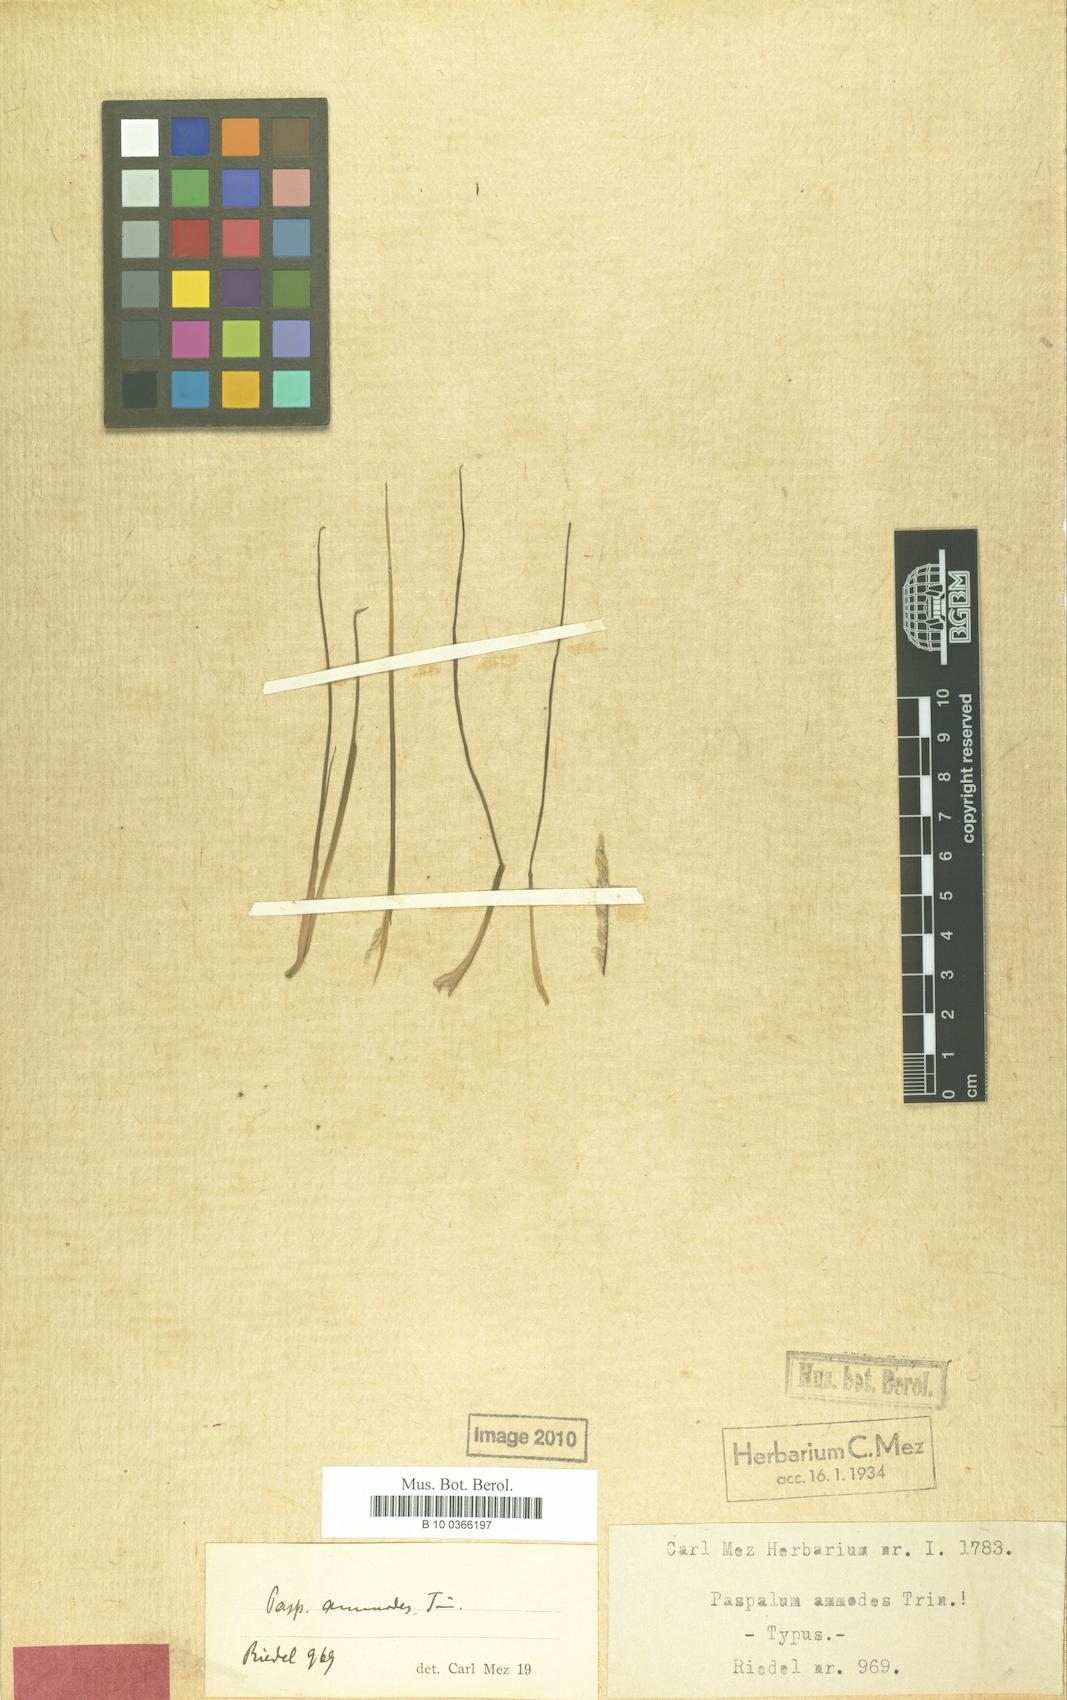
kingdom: Plantae
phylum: Tracheophyta
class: Liliopsida
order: Poales
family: Poaceae
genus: Paspalum
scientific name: Paspalum ammodes
